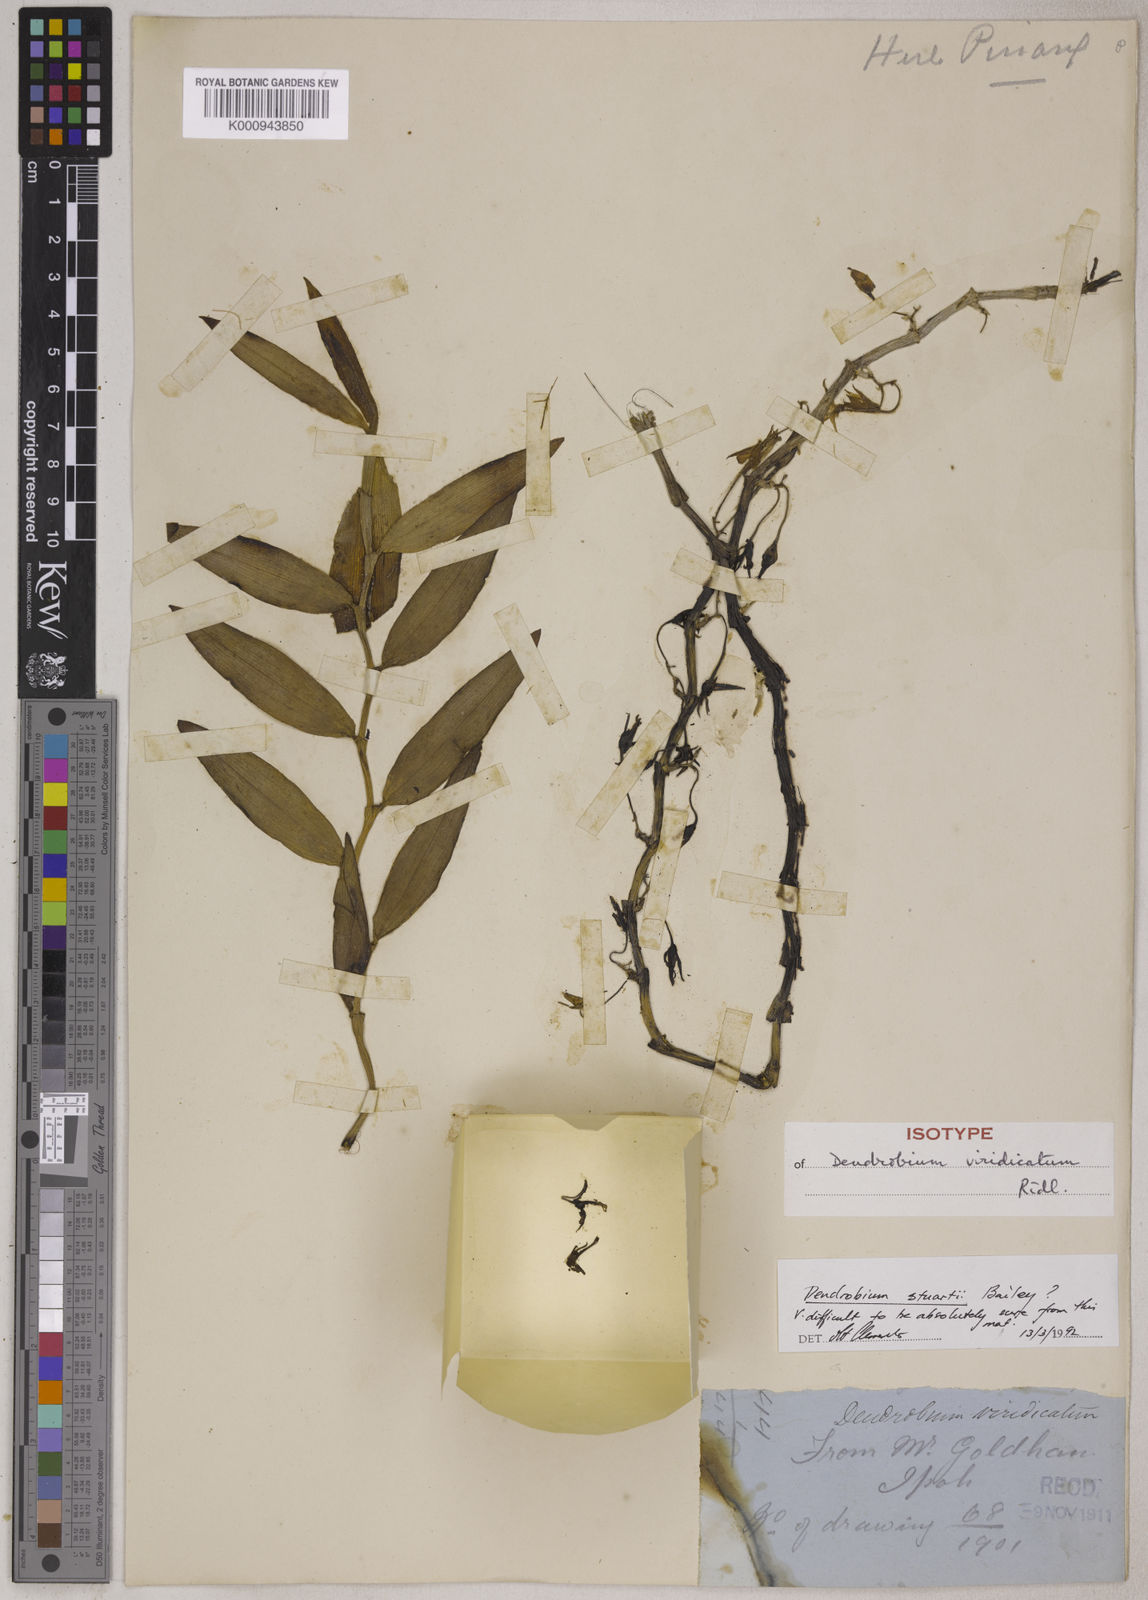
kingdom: Plantae
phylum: Tracheophyta
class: Liliopsida
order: Asparagales
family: Orchidaceae
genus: Dendrobium
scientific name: Dendrobium macrostachyum
